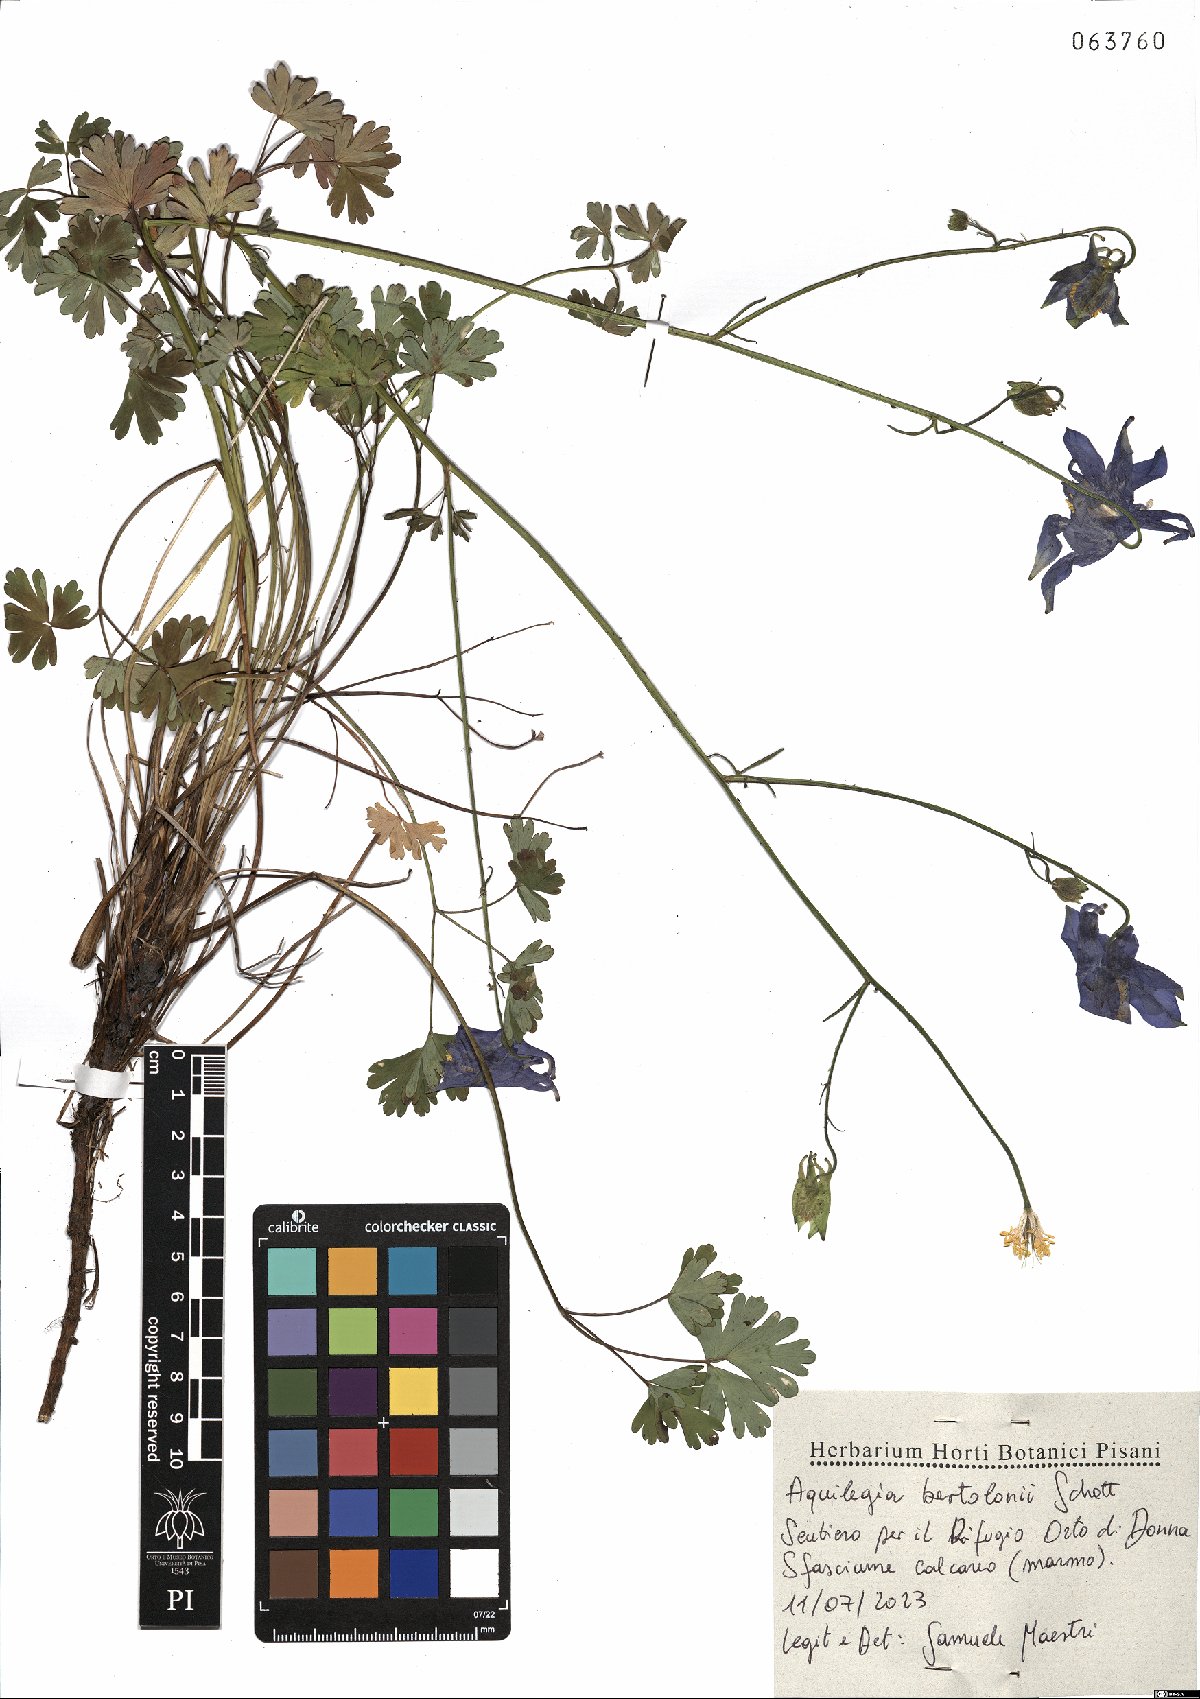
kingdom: Plantae
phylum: Tracheophyta
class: Magnoliopsida
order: Ranunculales
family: Ranunculaceae
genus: Aquilegia
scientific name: Aquilegia bertolonii
